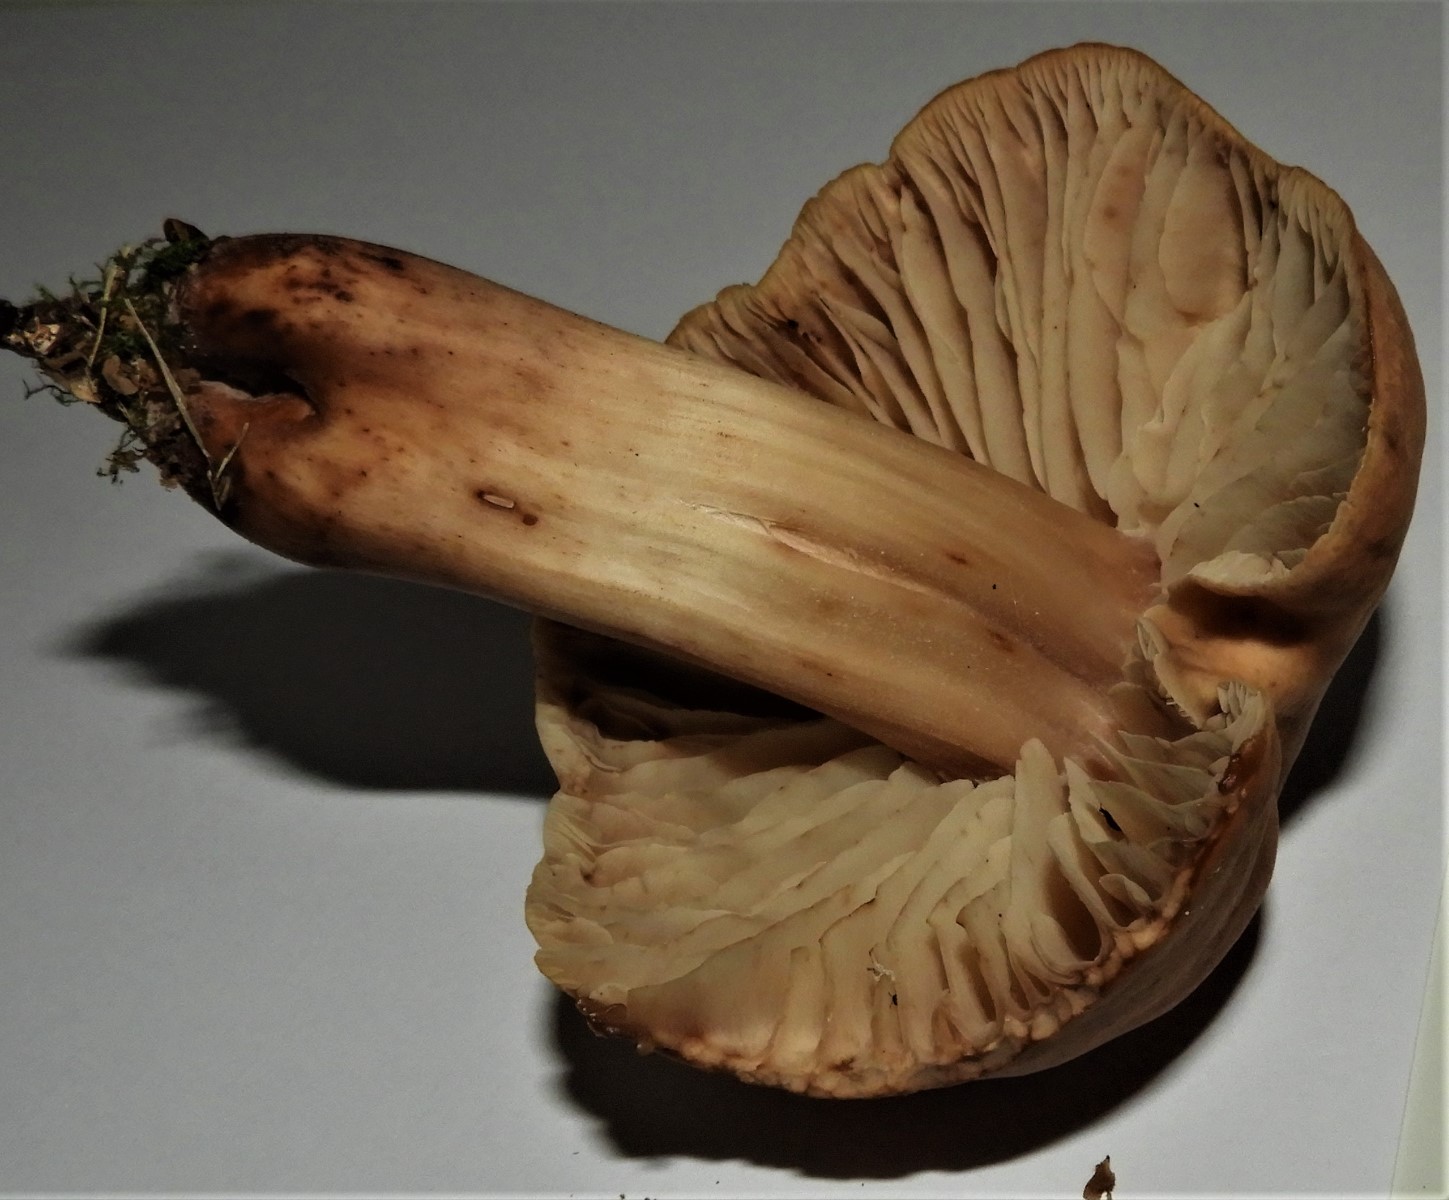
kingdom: Fungi
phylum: Basidiomycota
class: Agaricomycetes
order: Agaricales
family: Omphalotaceae
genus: Gymnopus
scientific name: Gymnopus fusipes
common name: tenstokket fladhat
